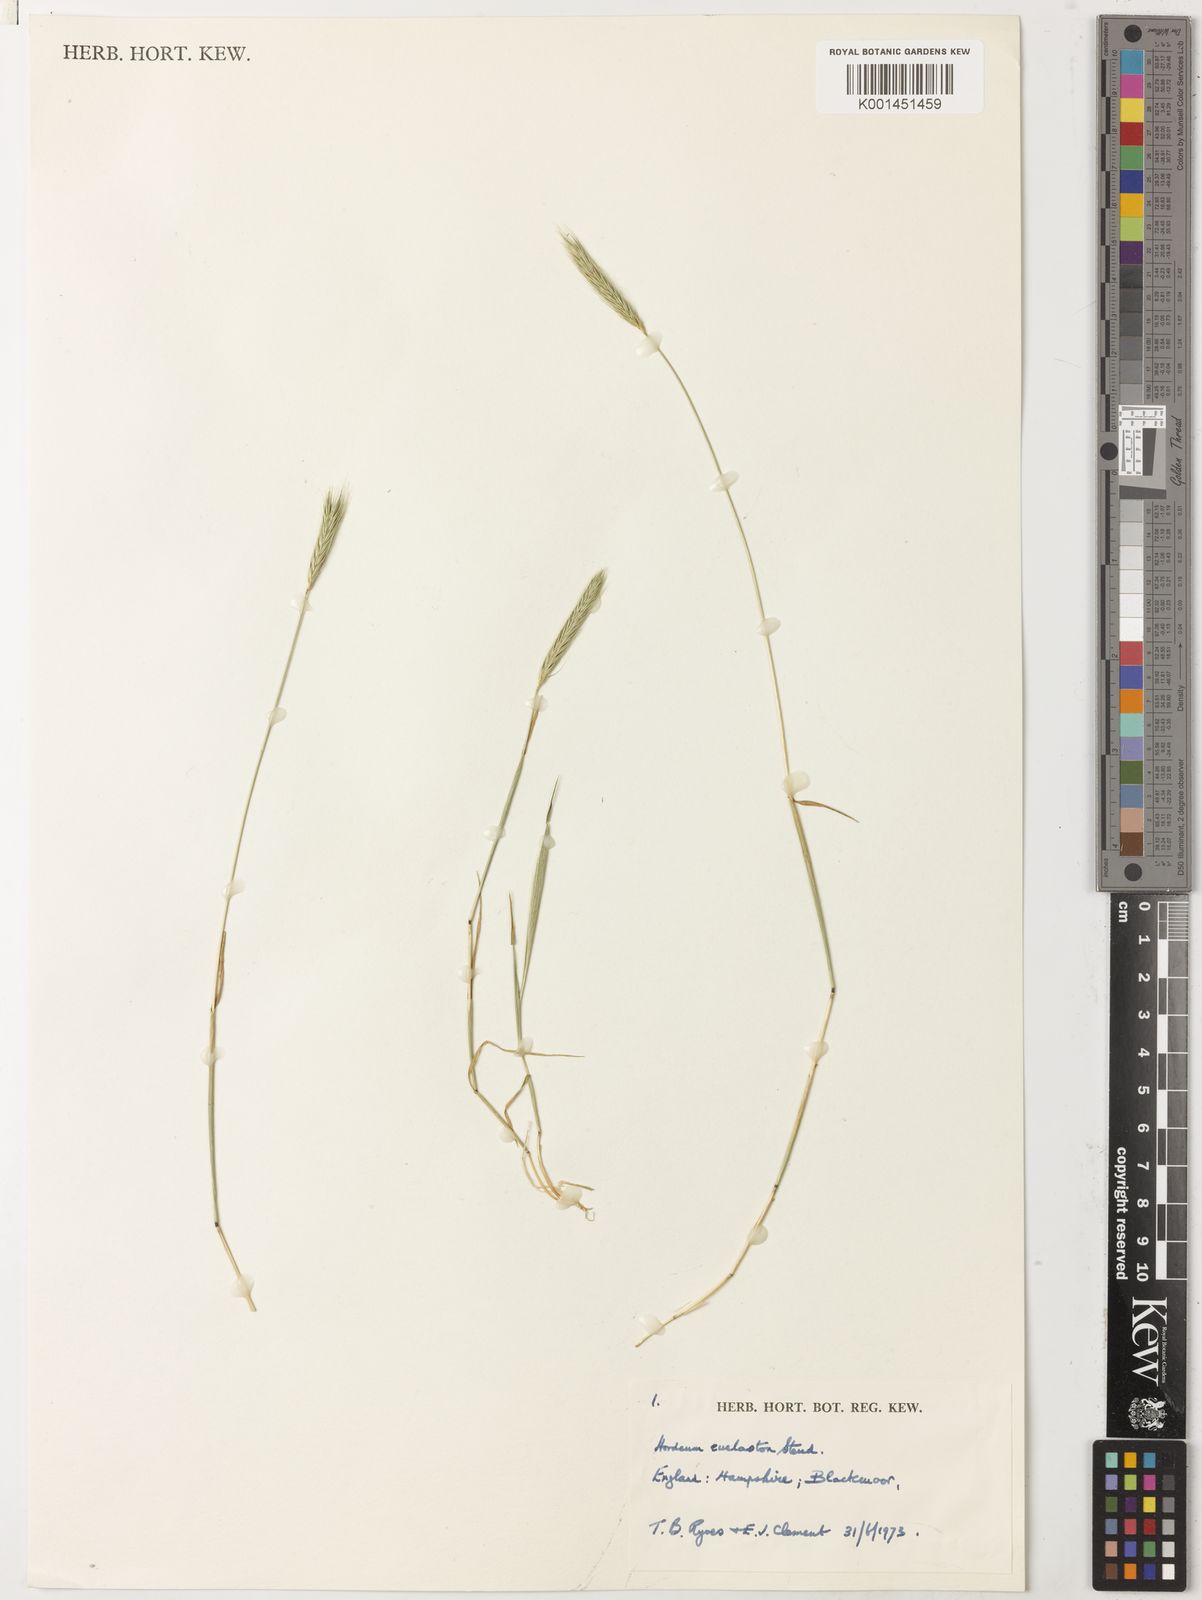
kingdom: Plantae
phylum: Tracheophyta
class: Liliopsida
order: Poales
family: Poaceae
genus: Hordeum
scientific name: Hordeum euclaston
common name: Argentine barley
